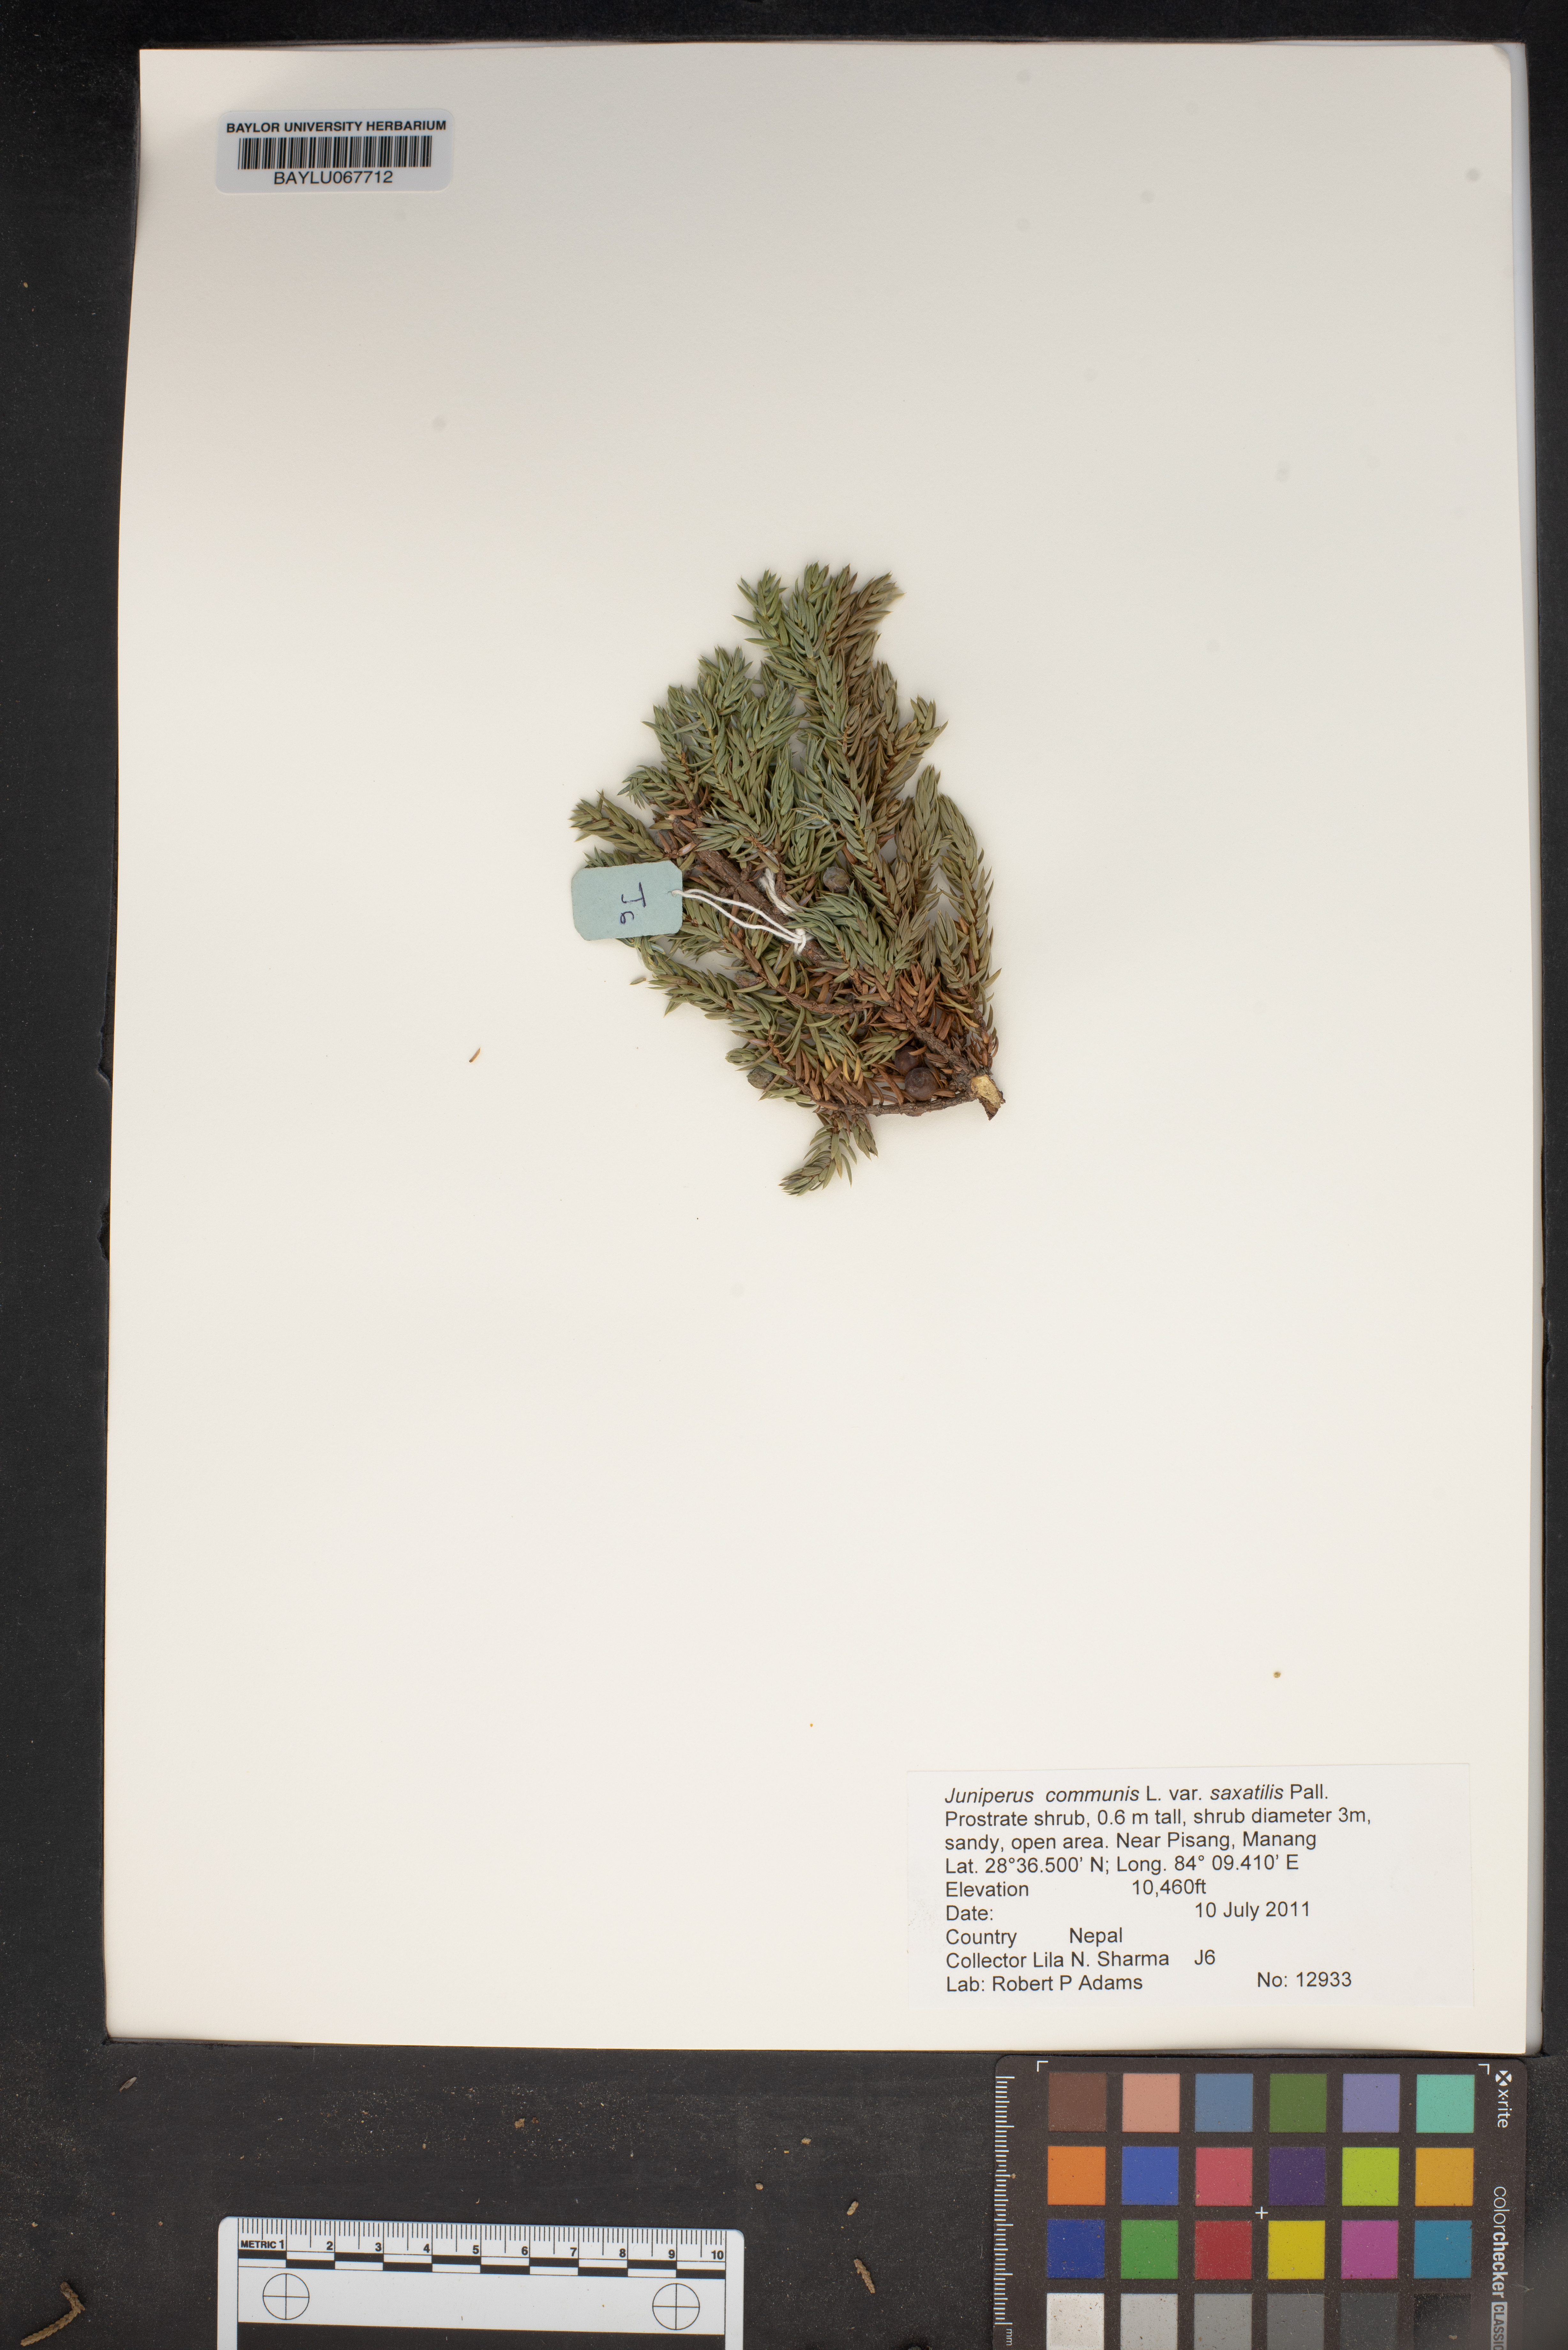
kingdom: Plantae
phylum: Tracheophyta
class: Pinopsida
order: Pinales
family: Cupressaceae
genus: Juniperus
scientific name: Juniperus communis
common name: Common juniper
